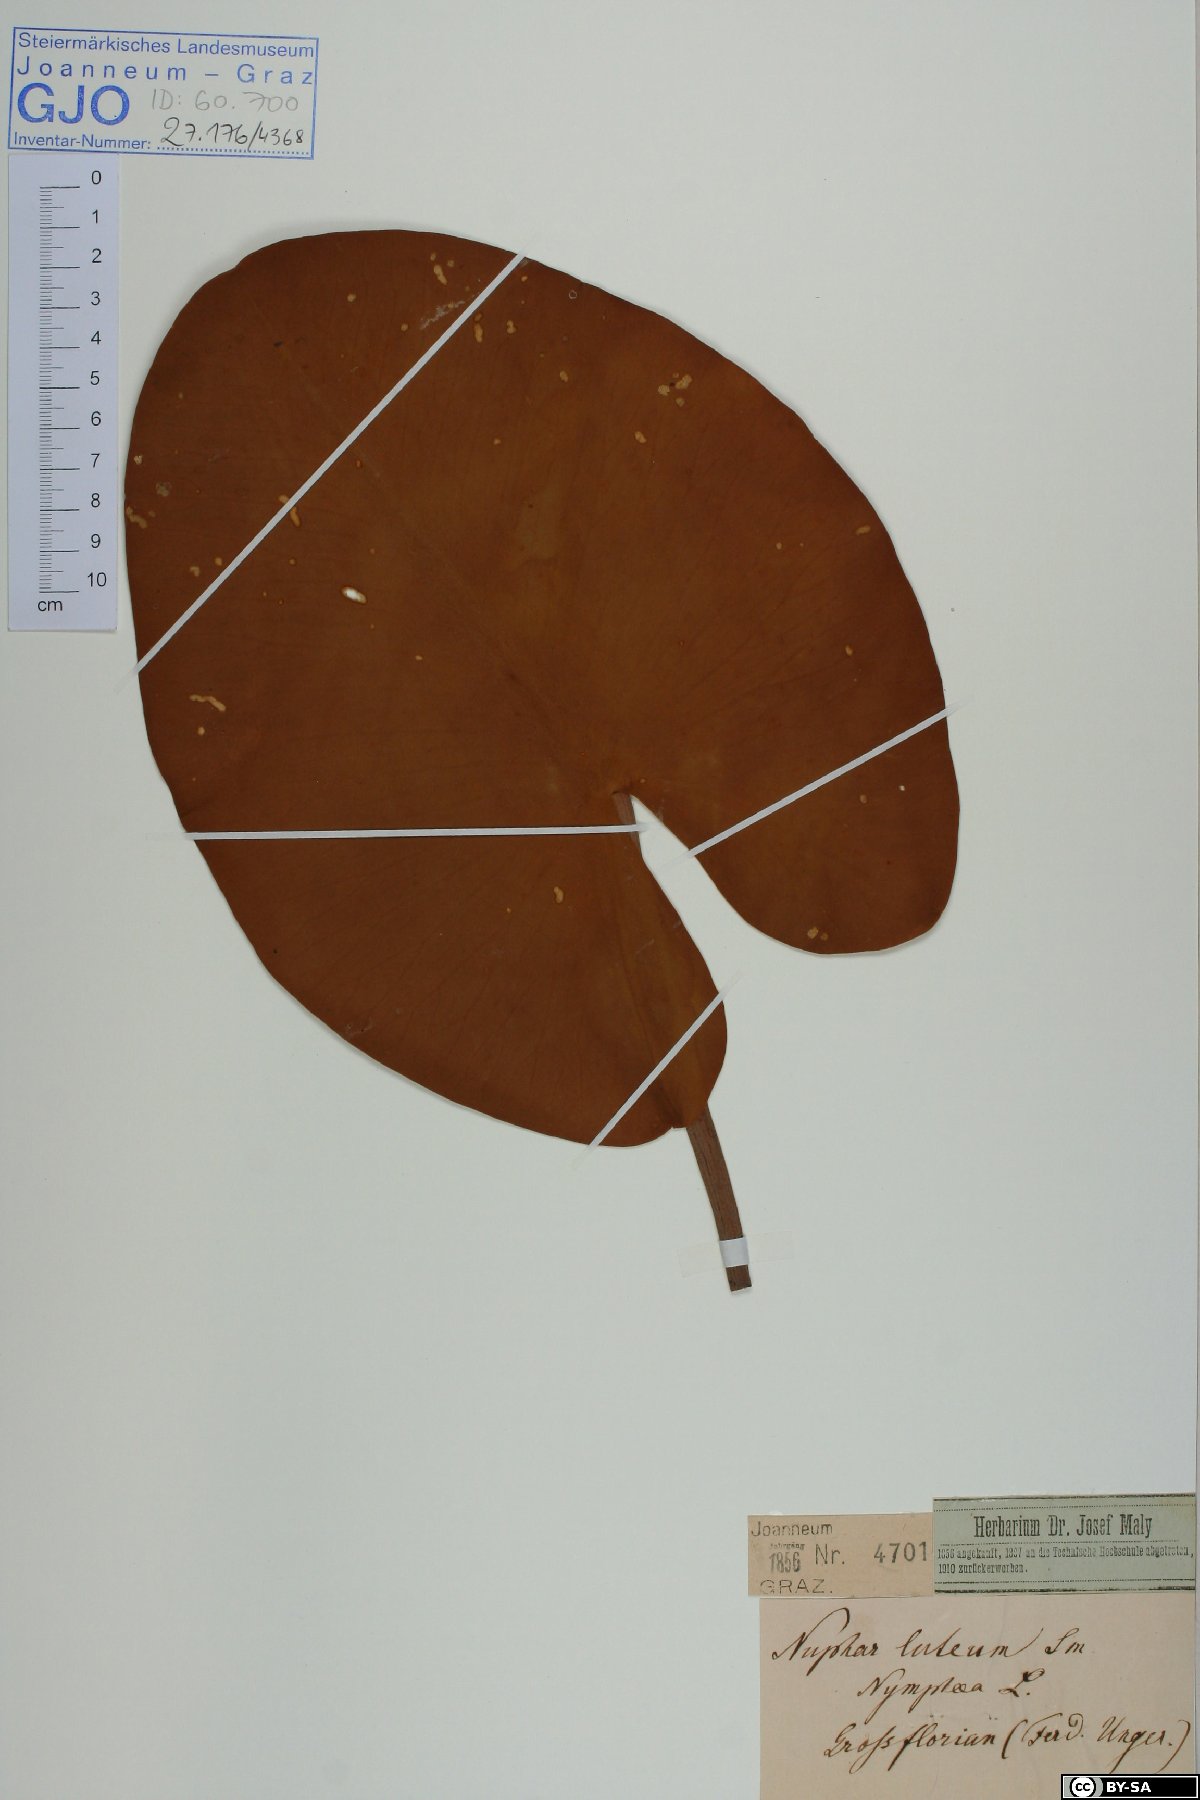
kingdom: Plantae
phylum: Tracheophyta
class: Magnoliopsida
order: Nymphaeales
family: Nymphaeaceae
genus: Nuphar
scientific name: Nuphar lutea
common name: Yellow water-lily
